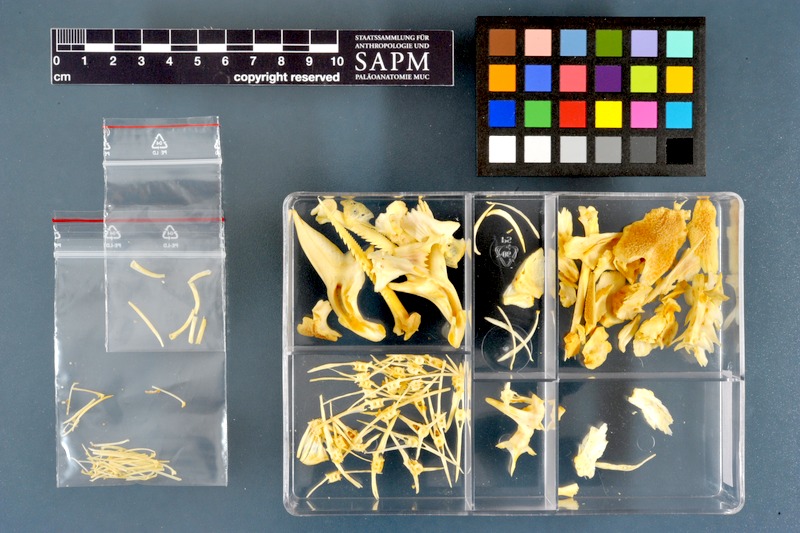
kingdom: Animalia
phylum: Chordata
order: Siluriformes
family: Mochokidae
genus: Synodontis
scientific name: Synodontis schall
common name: Wahrindi
